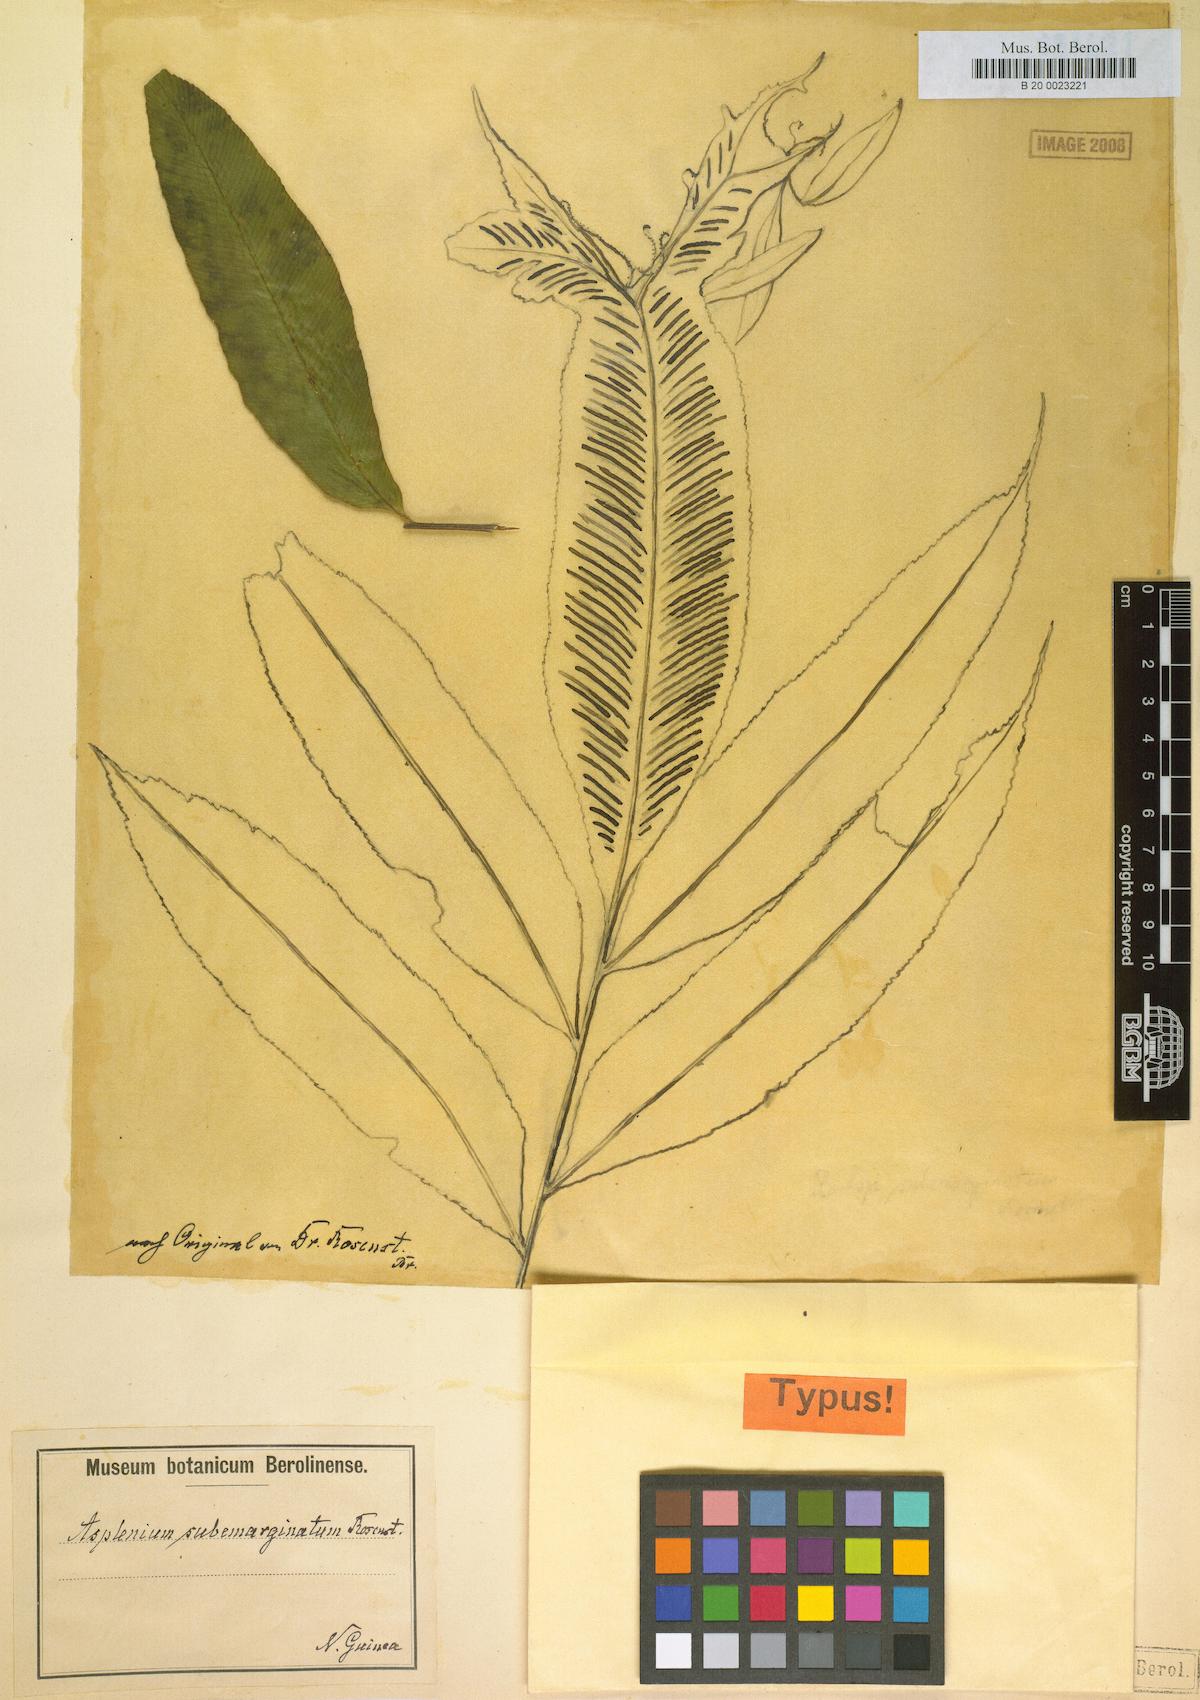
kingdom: Plantae
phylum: Tracheophyta
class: Polypodiopsida
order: Polypodiales
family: Aspleniaceae
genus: Asplenium
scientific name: Asplenium subemarginatum
